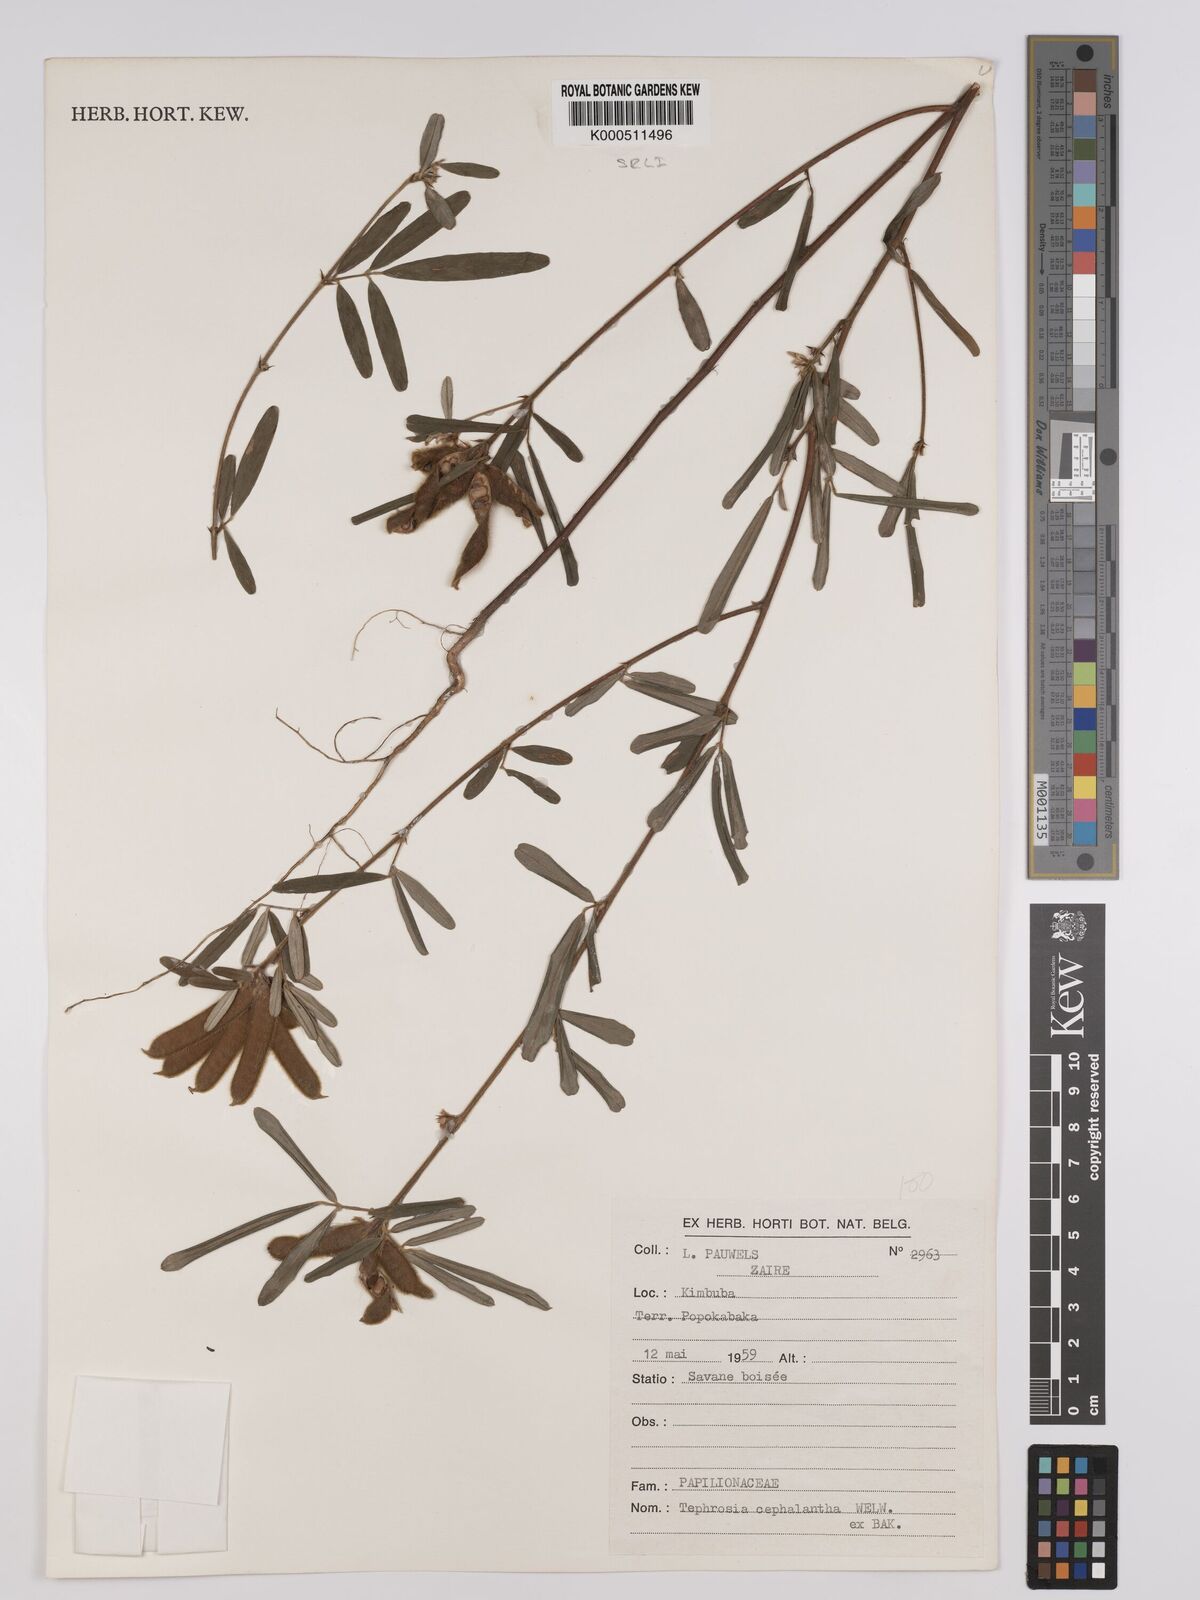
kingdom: Plantae
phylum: Tracheophyta
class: Magnoliopsida
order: Fabales
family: Fabaceae
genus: Tephrosia
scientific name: Tephrosia cephalantha
